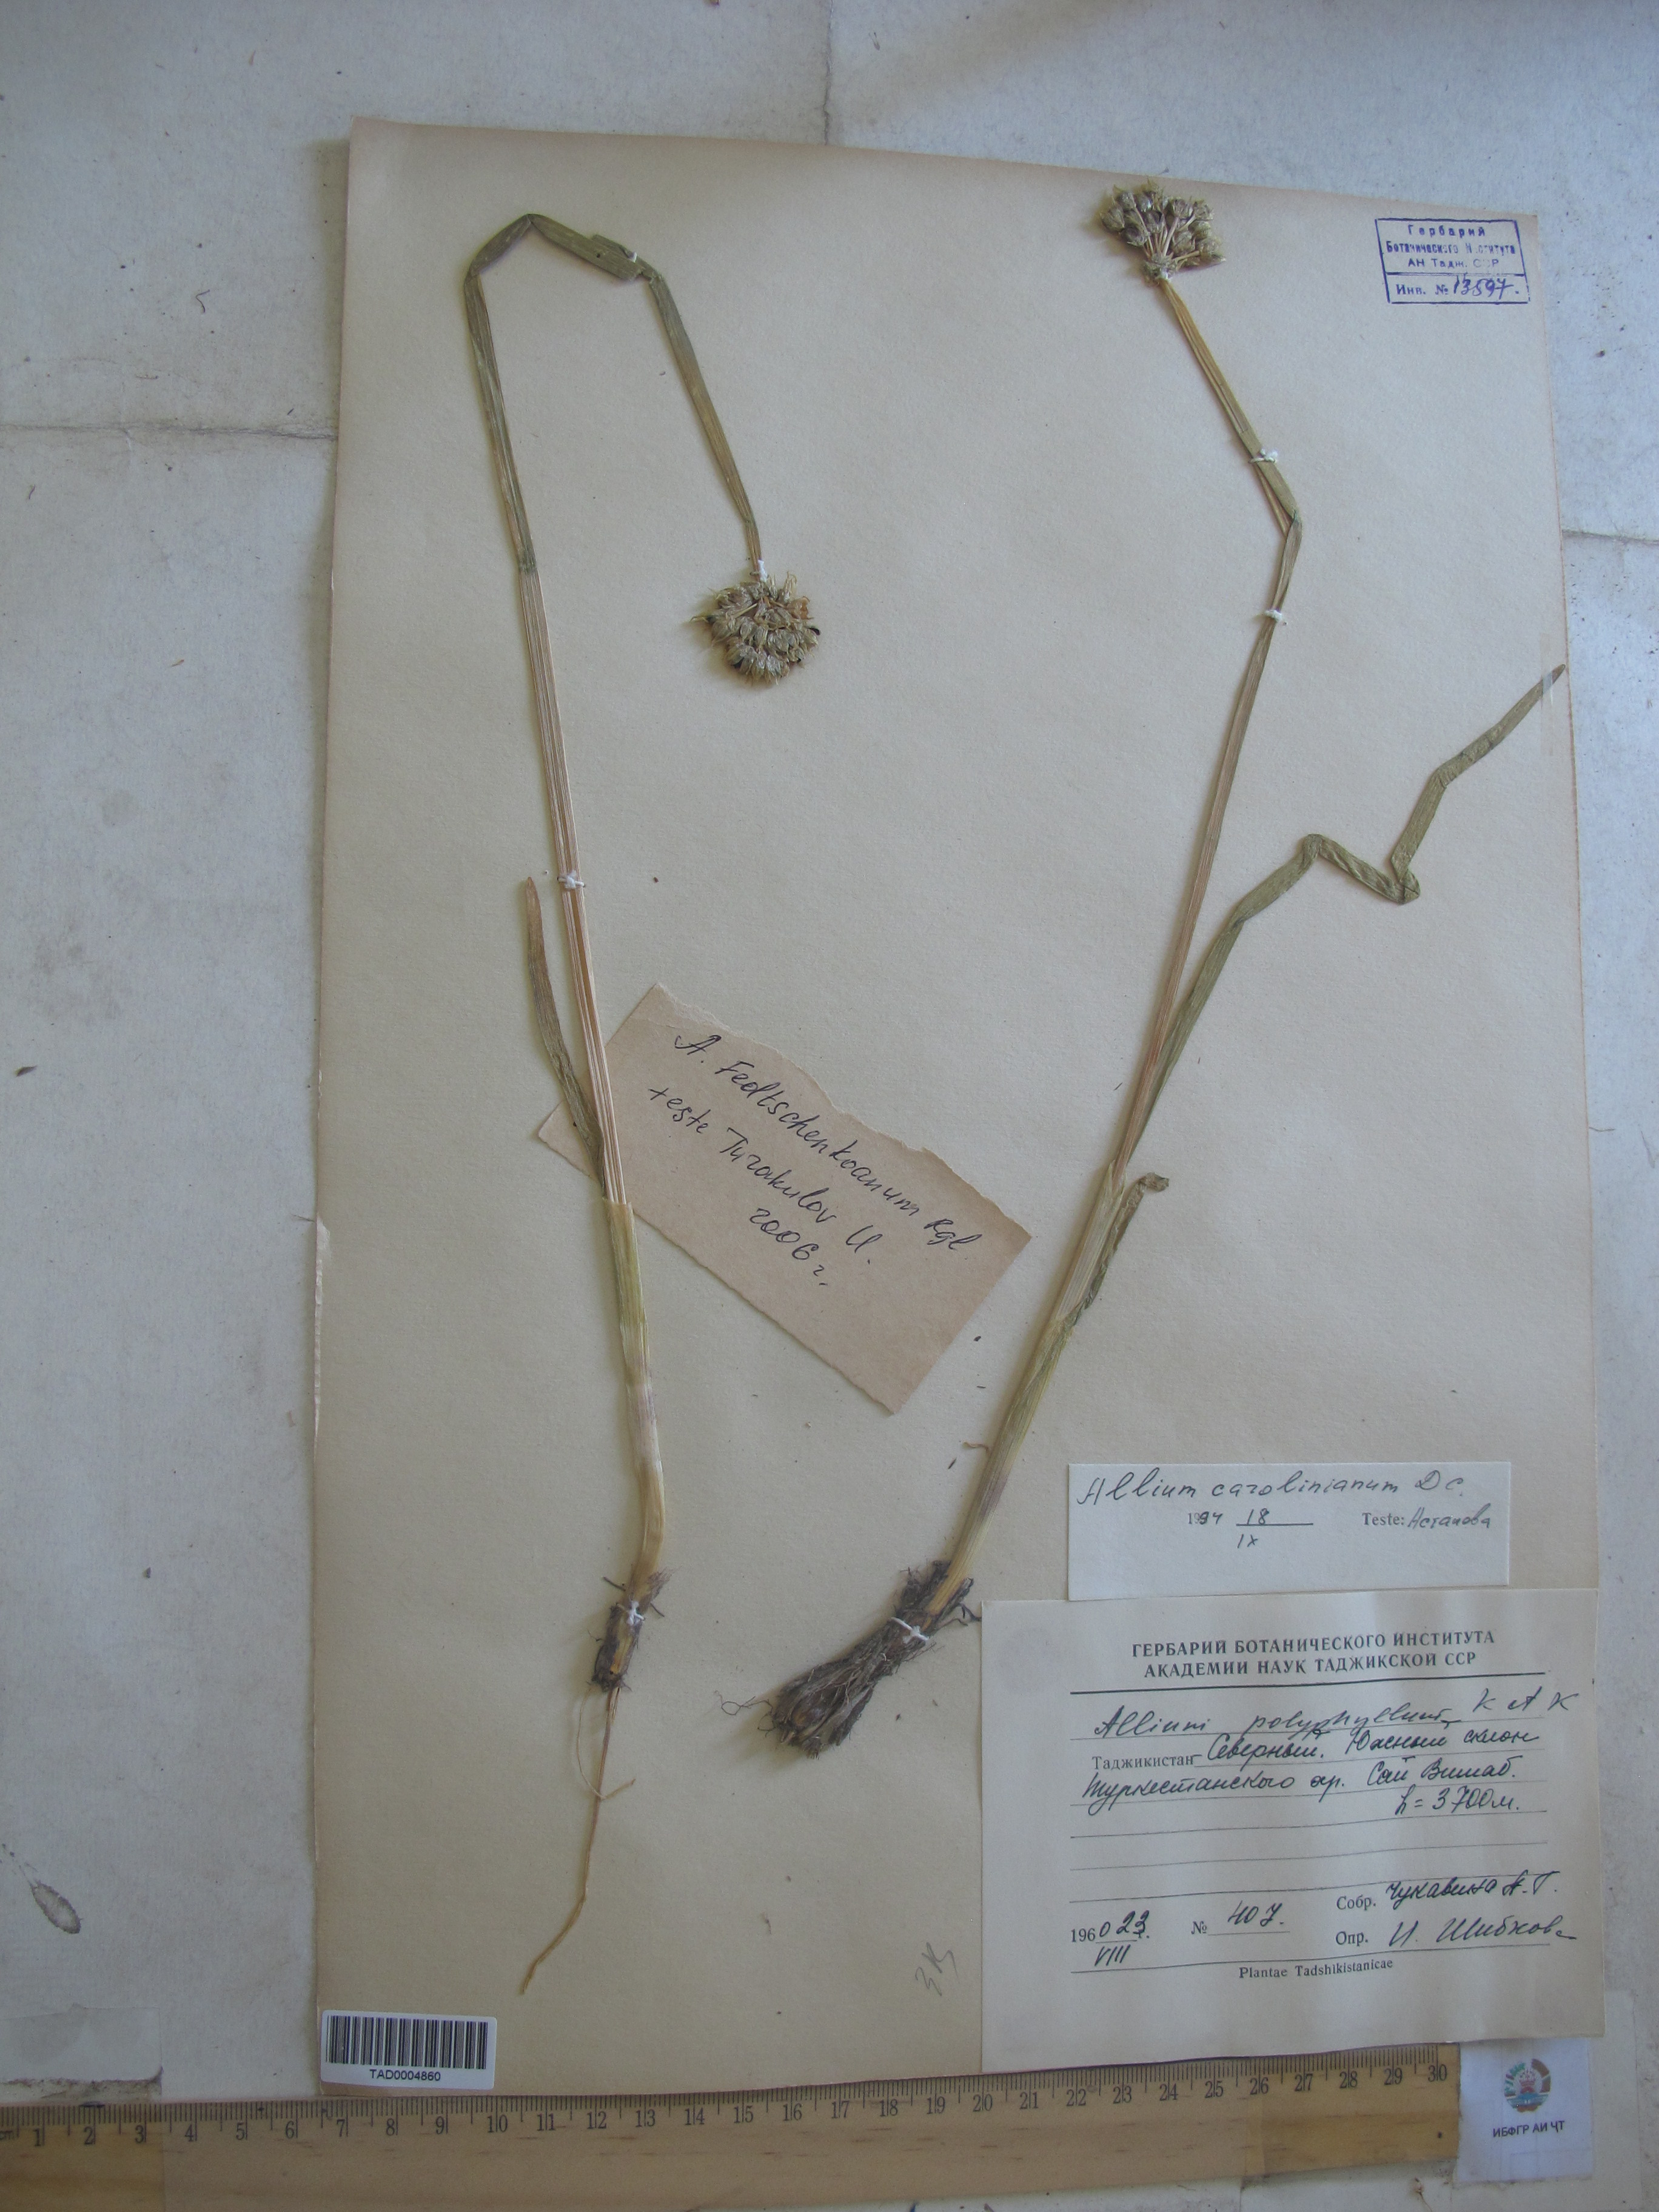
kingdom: Plantae
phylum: Tracheophyta
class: Liliopsida
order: Asparagales
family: Amaryllidaceae
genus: Allium
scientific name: Allium carolinianum
